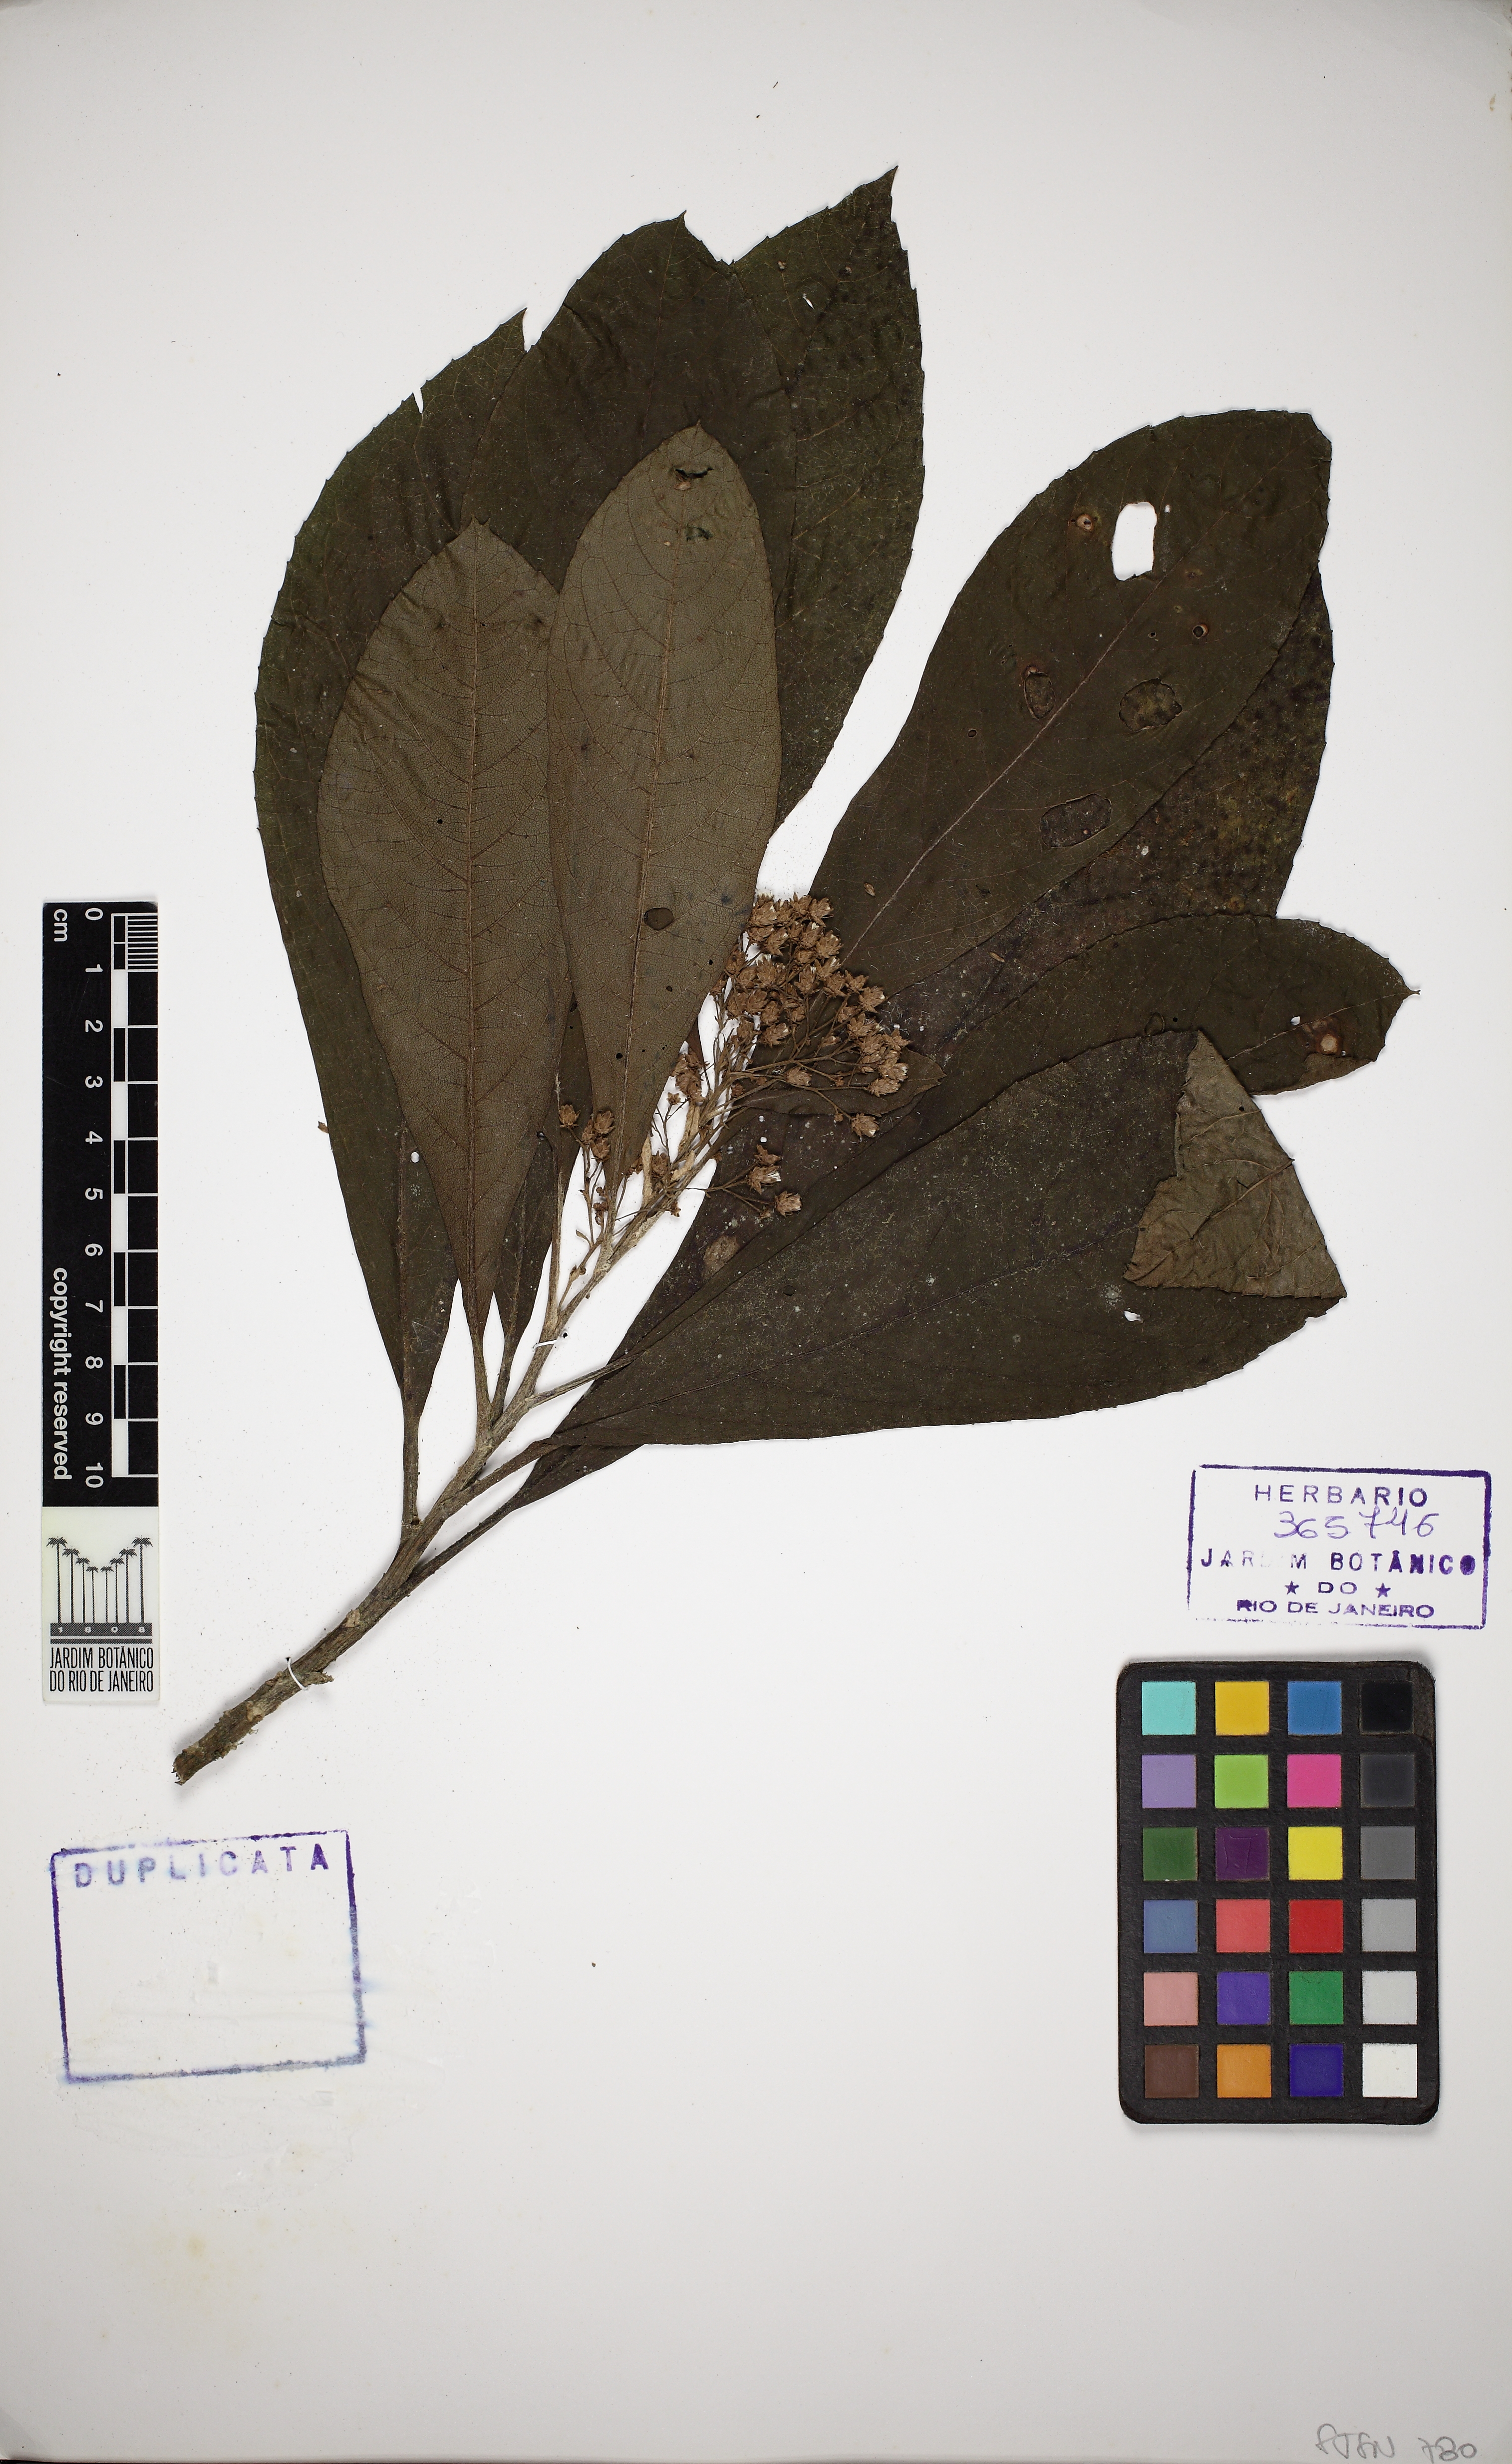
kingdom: Plantae
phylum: Tracheophyta
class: Magnoliopsida
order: Asterales
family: Asteraceae
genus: Vernonia
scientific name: Vernonia
